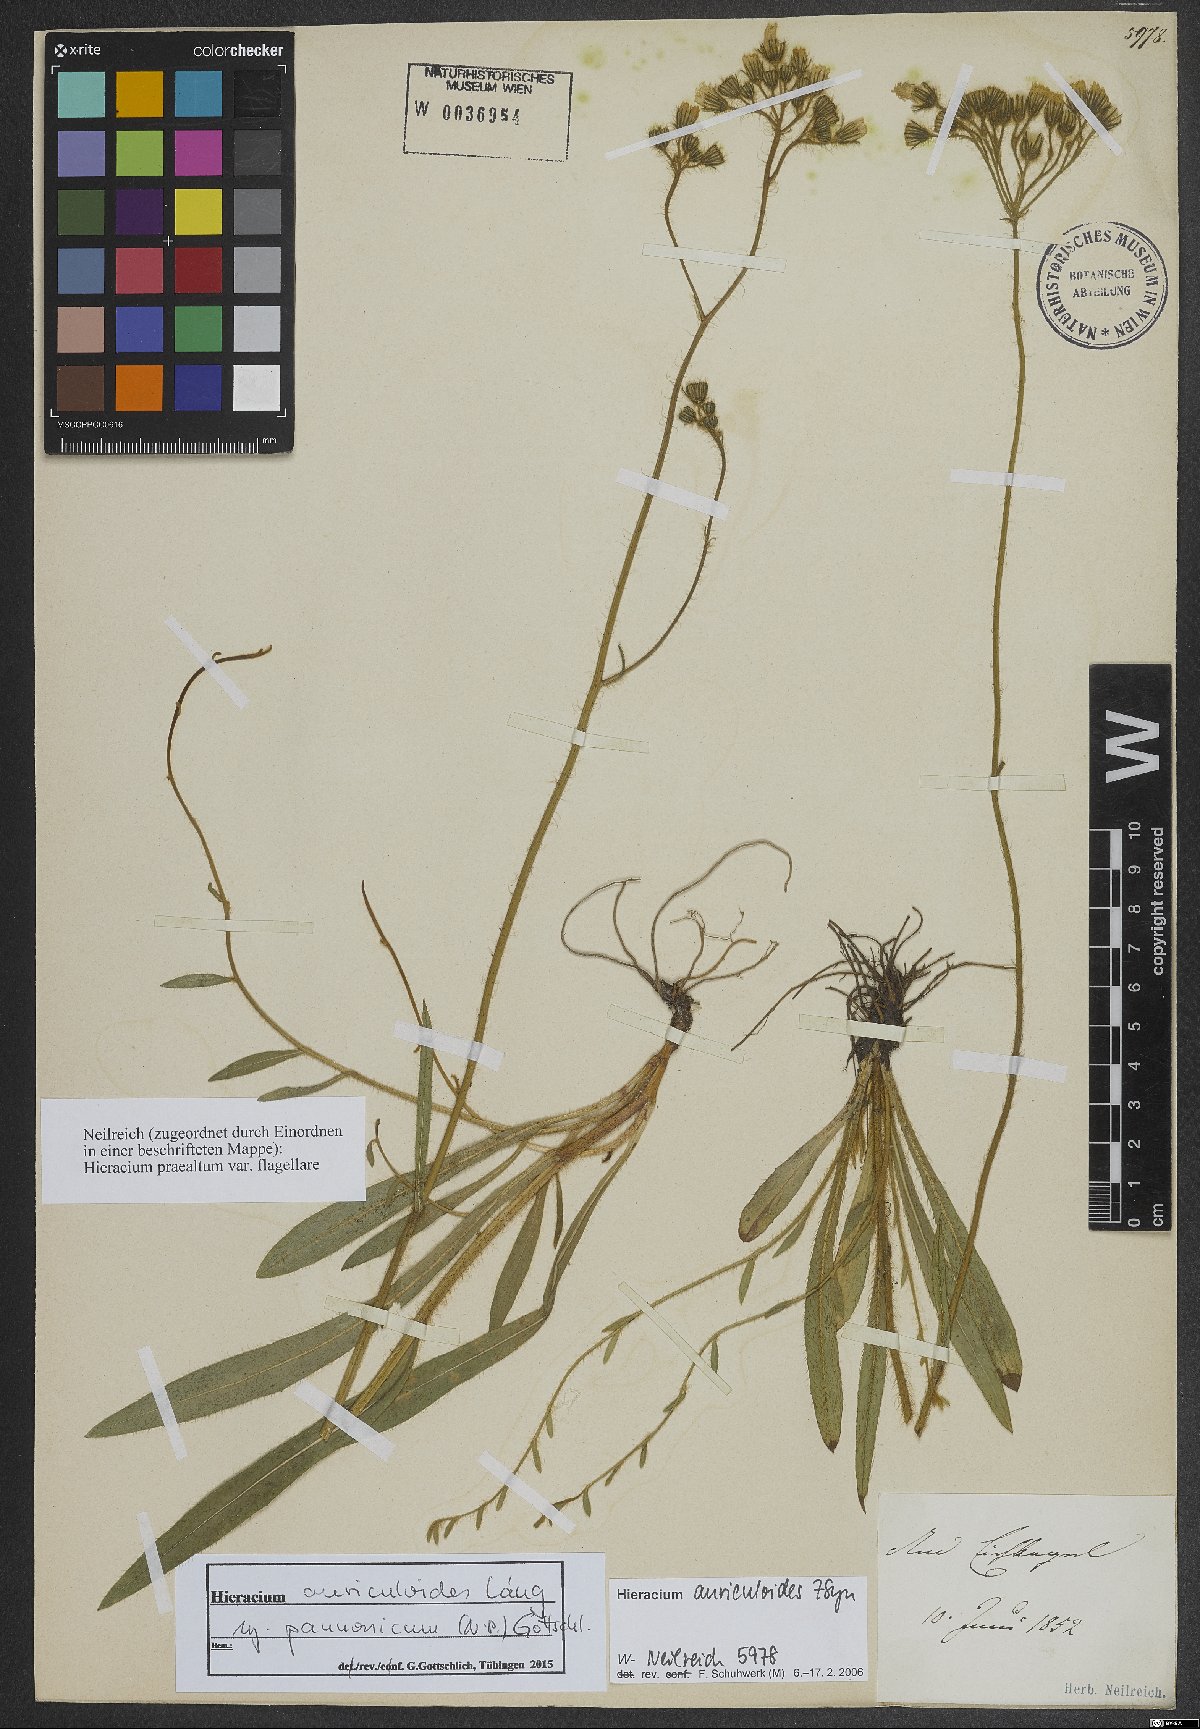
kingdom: Plantae
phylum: Tracheophyta
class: Magnoliopsida
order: Asterales
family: Asteraceae
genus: Pilosella
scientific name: Pilosella auriculoides
